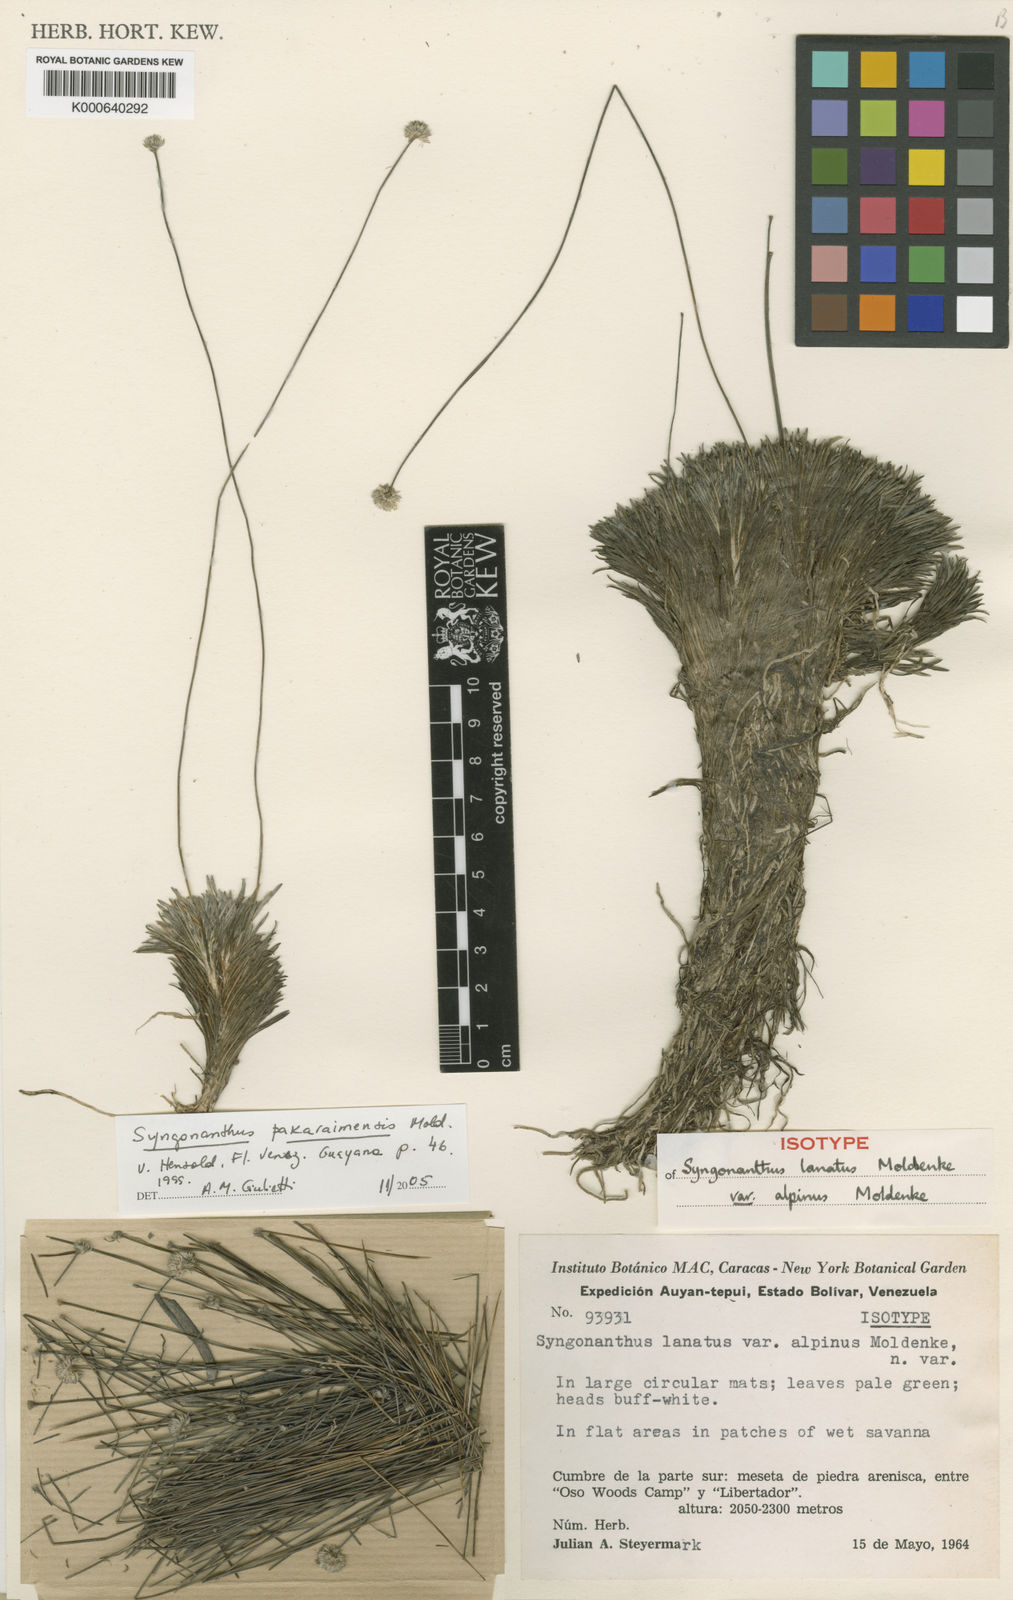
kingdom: Plantae
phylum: Tracheophyta
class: Liliopsida
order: Poales
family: Eriocaulaceae
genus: Syngonanthus
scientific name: Syngonanthus pakaraimensis
